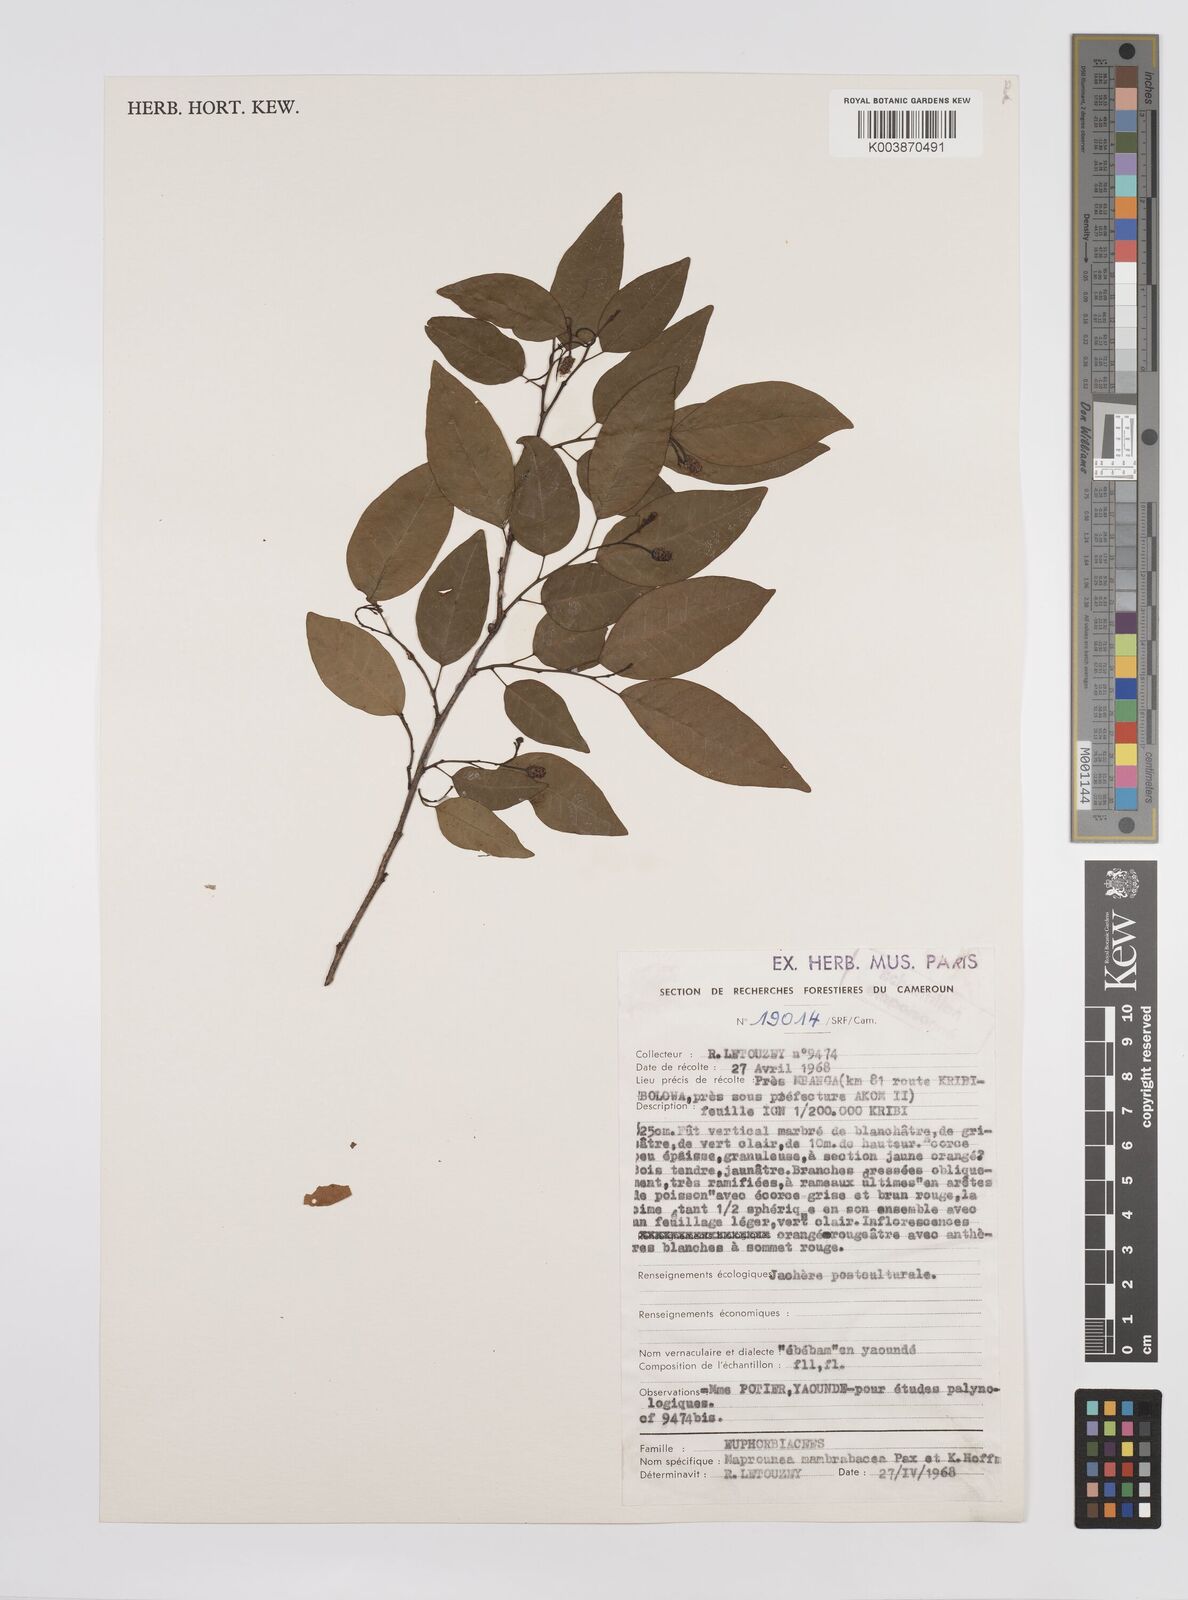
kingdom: Plantae
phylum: Tracheophyta
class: Magnoliopsida
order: Malpighiales
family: Euphorbiaceae
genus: Maprounea
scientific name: Maprounea membranacea
